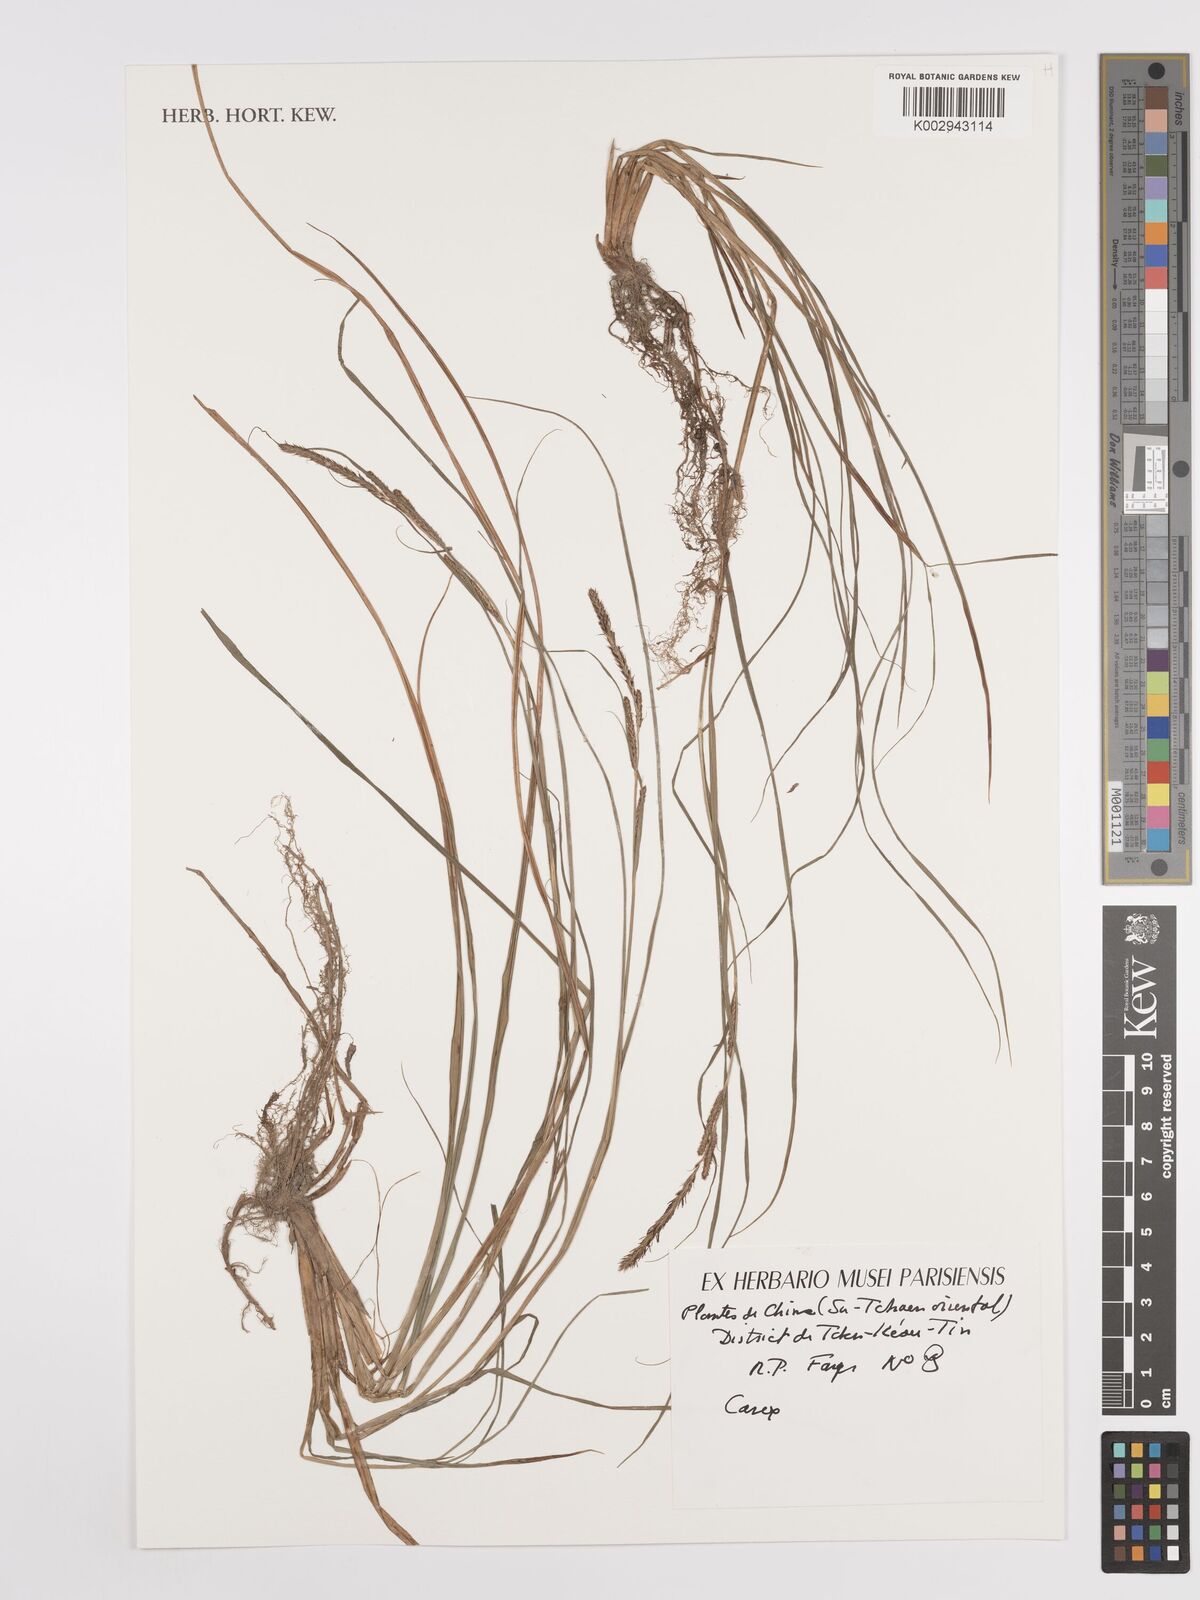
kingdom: Plantae
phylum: Tracheophyta
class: Liliopsida
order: Poales
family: Cyperaceae
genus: Carex
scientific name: Carex
